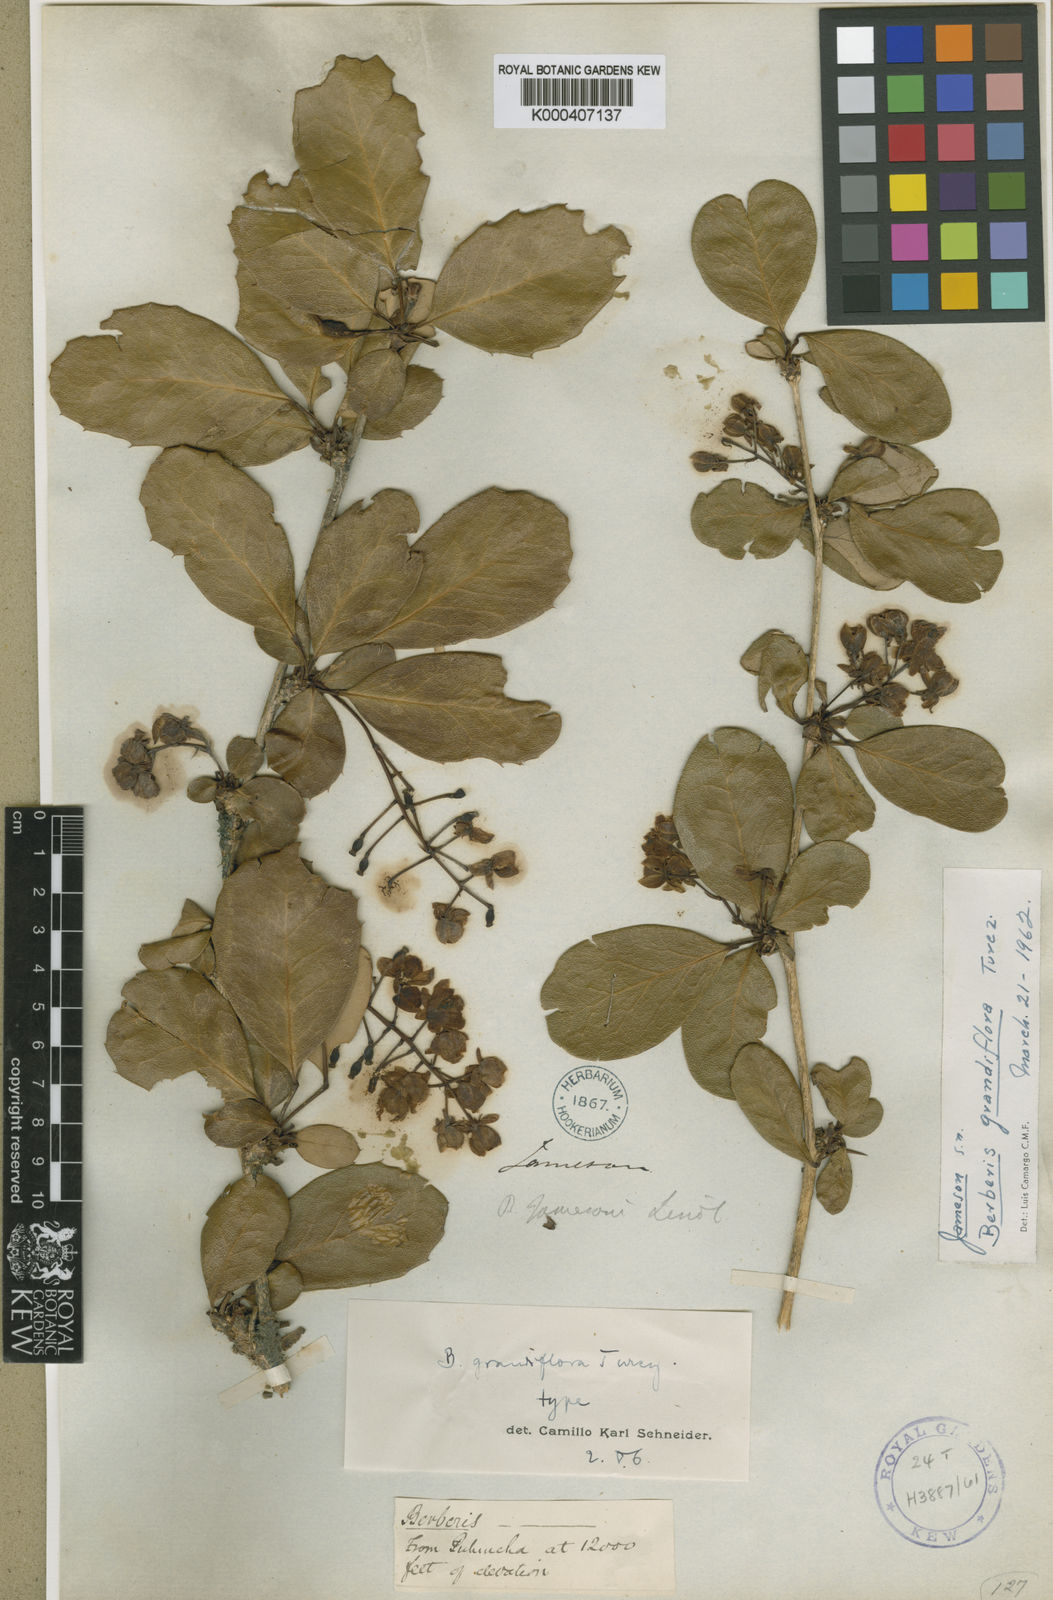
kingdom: Plantae
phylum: Tracheophyta
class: Magnoliopsida
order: Ranunculales
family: Berberidaceae
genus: Berberis
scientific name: Berberis grandiflora
